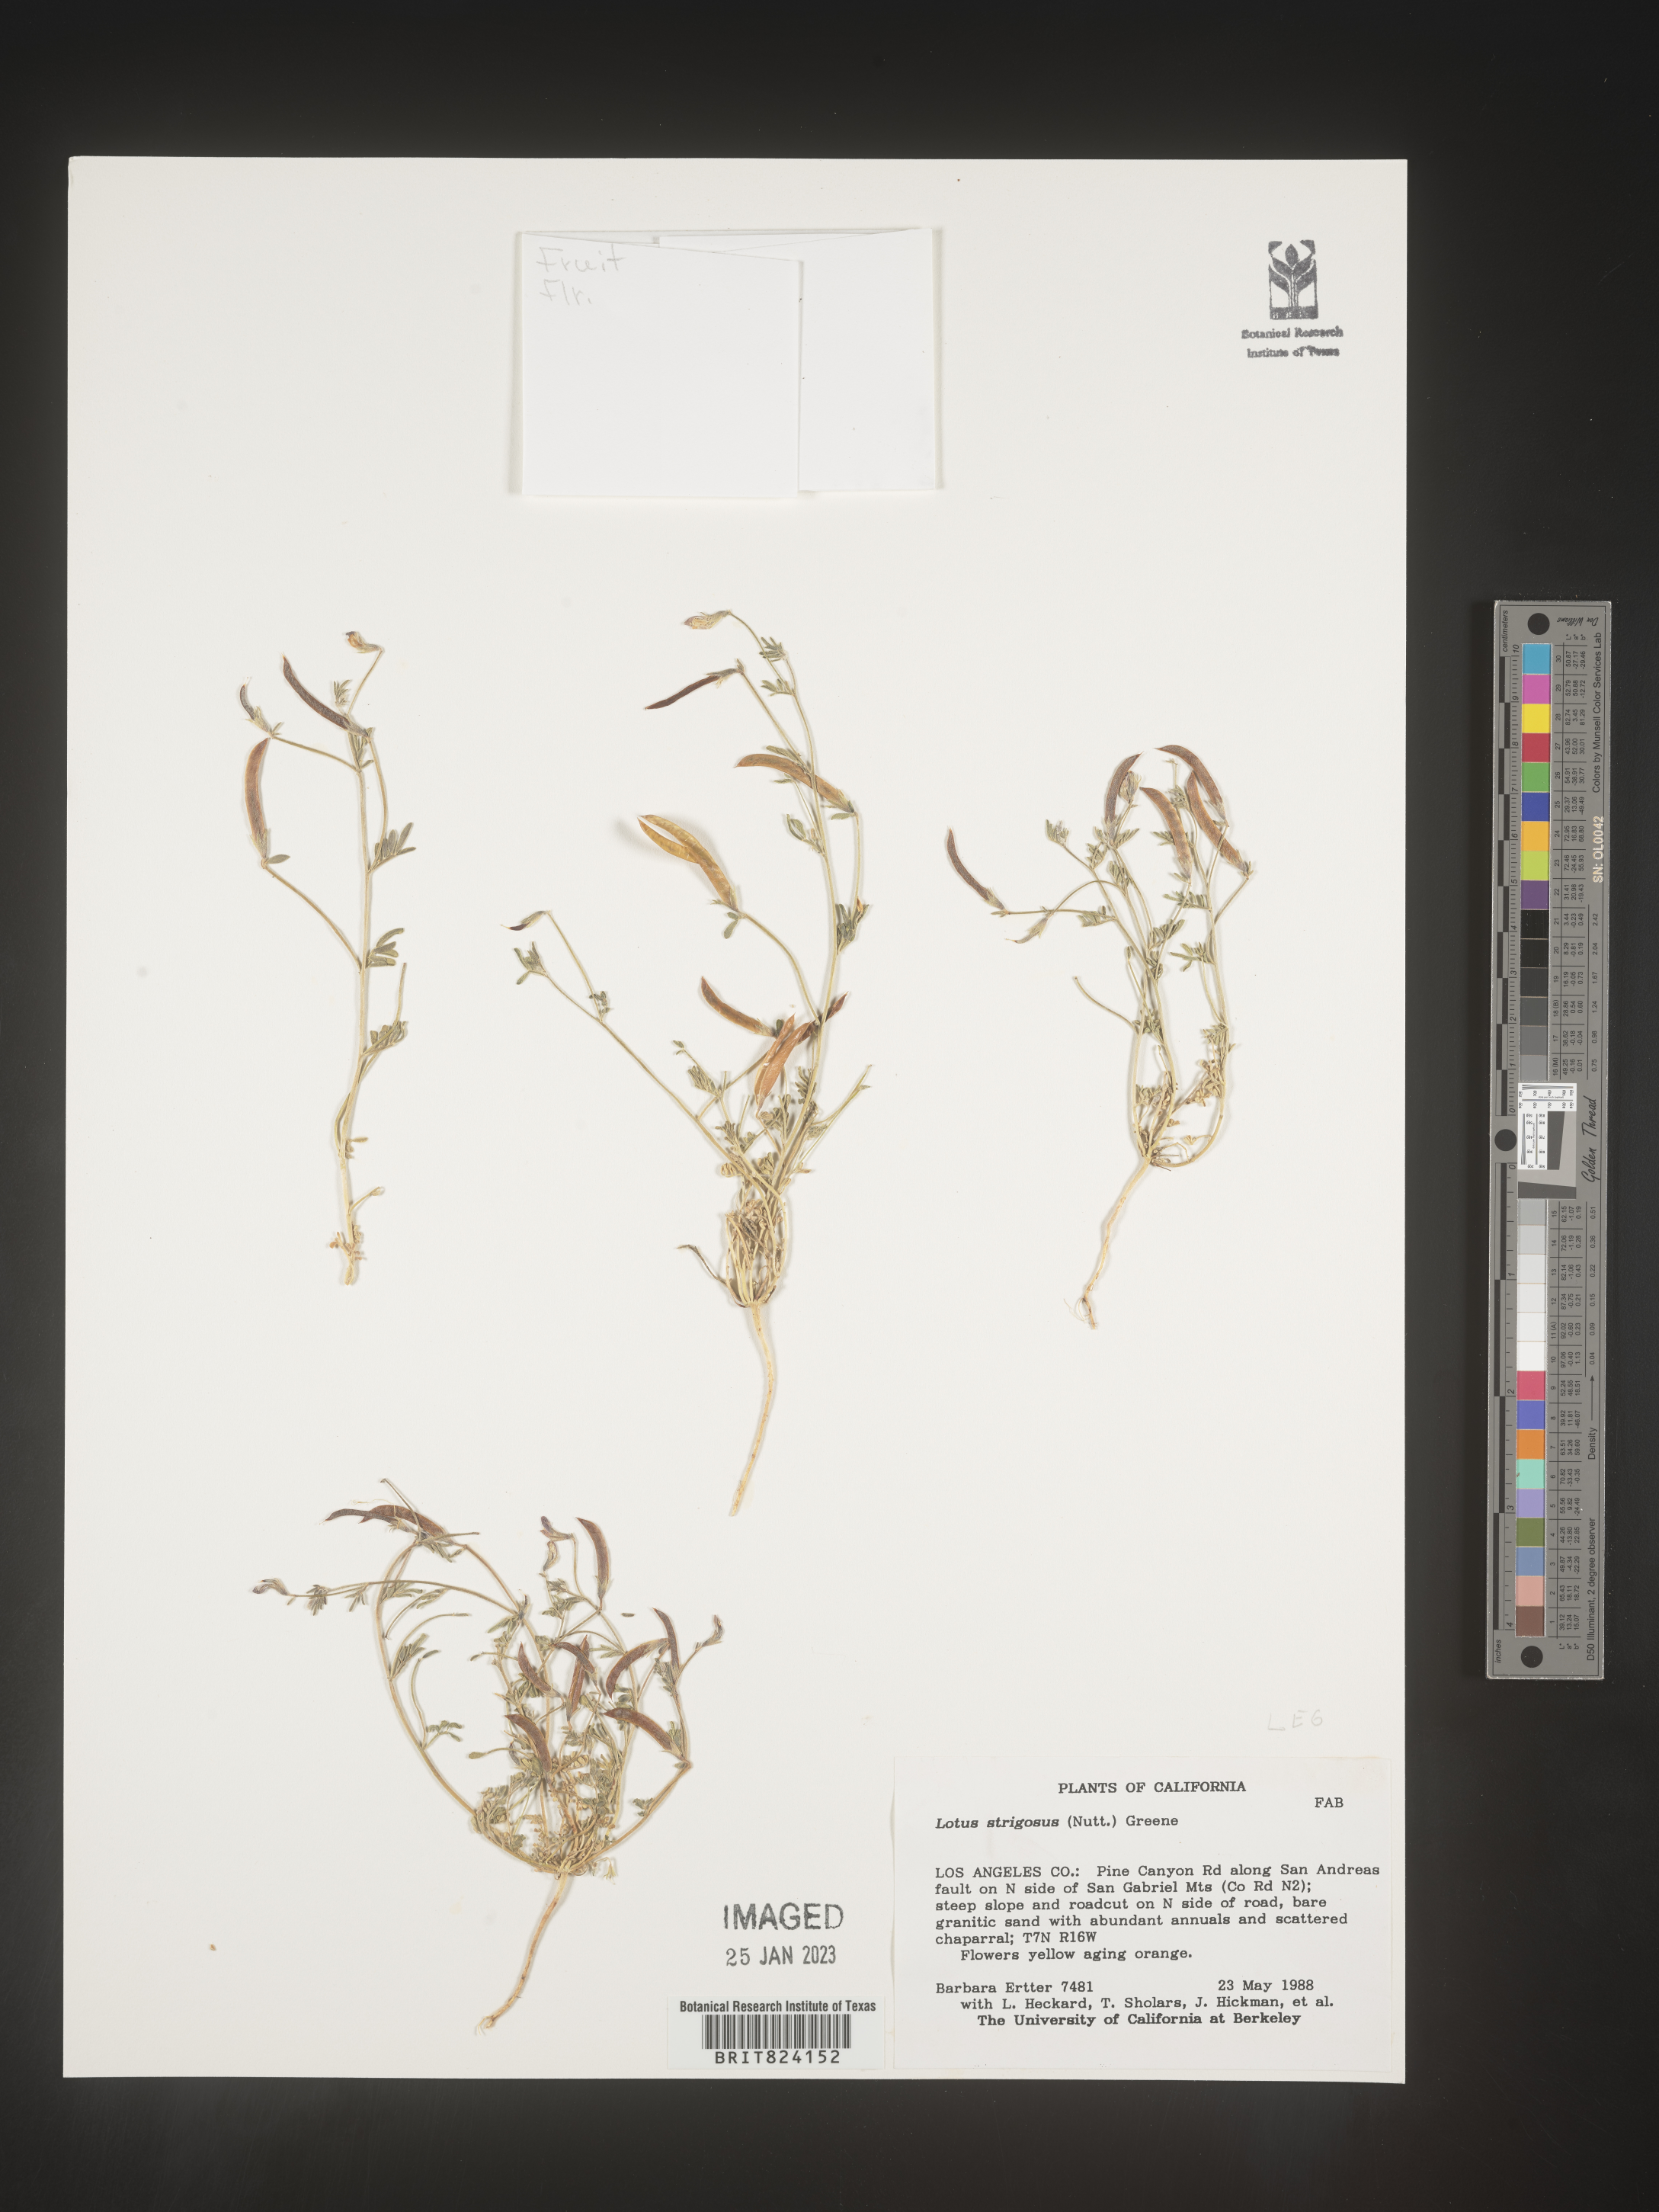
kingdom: Plantae
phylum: Tracheophyta
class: Magnoliopsida
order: Fabales
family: Fabaceae
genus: Lotus
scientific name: Lotus
